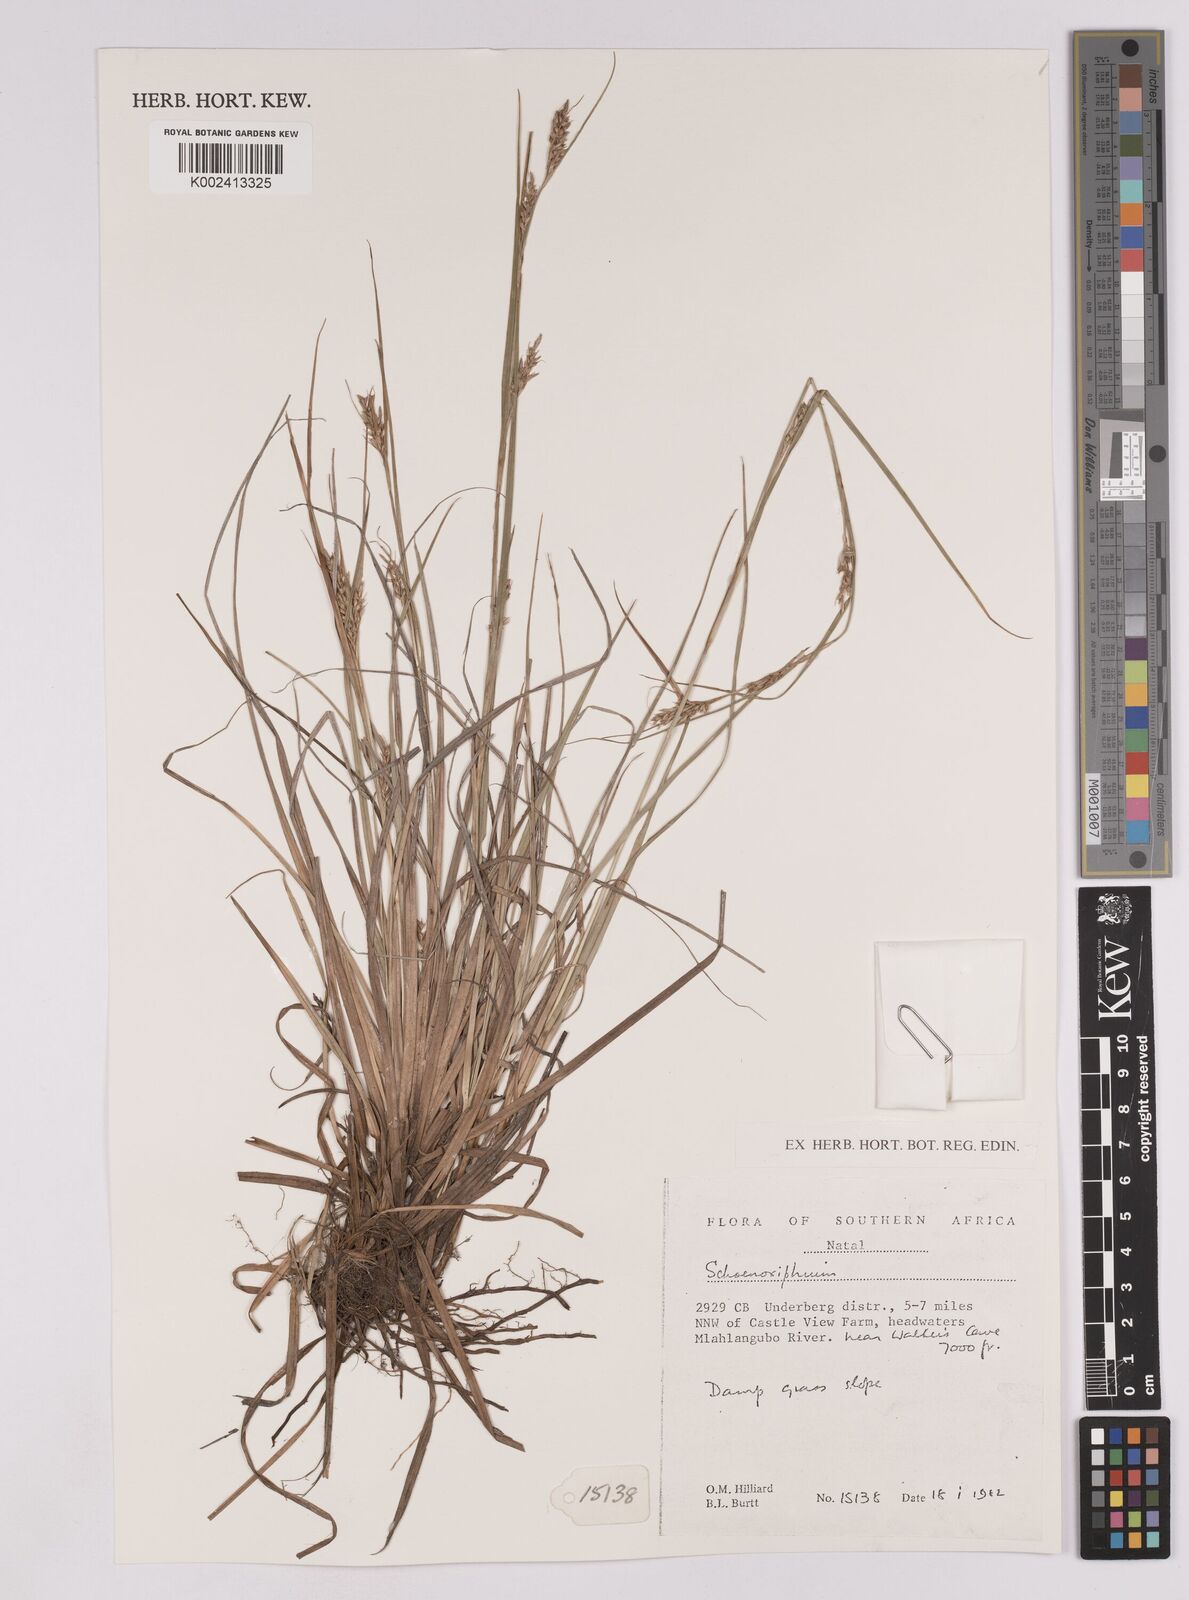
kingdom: Plantae
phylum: Tracheophyta
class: Liliopsida
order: Poales
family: Cyperaceae
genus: Carex
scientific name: Carex
